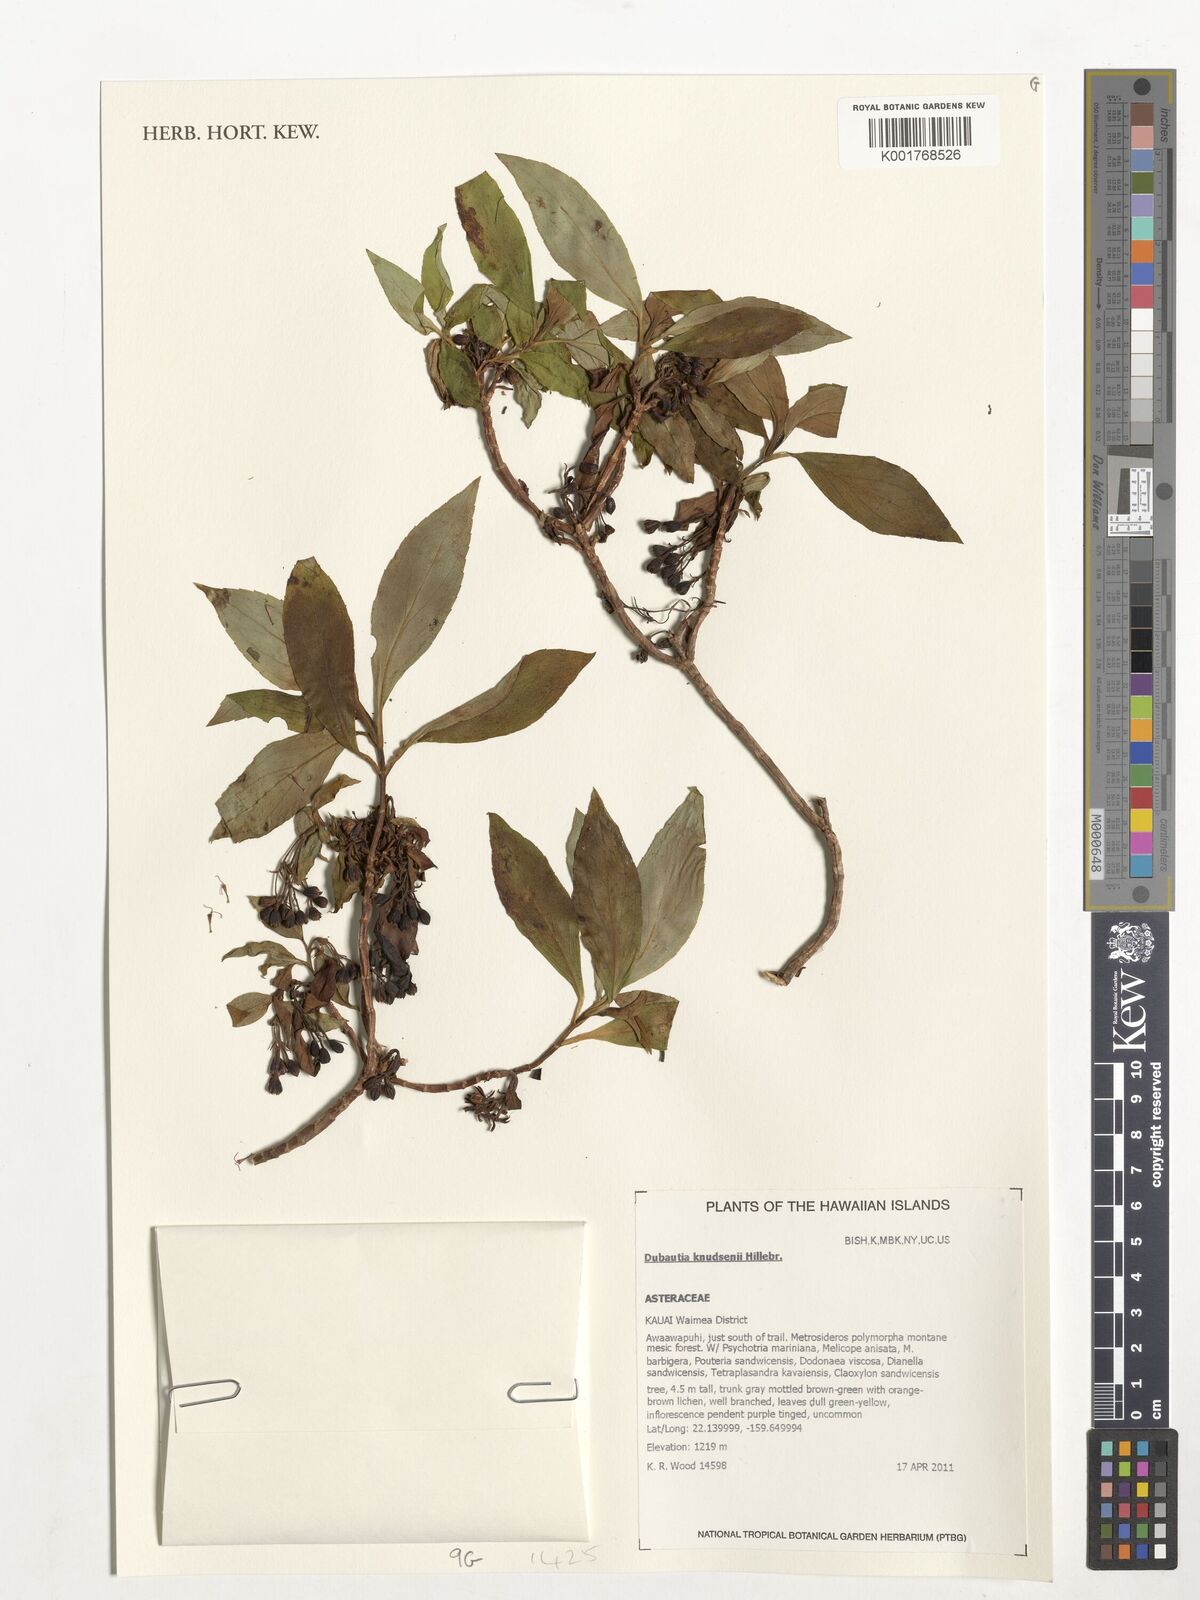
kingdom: Plantae
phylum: Tracheophyta
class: Magnoliopsida
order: Asterales
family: Asteraceae
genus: Dubautia
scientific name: Dubautia knudsenii
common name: Knudsen's dubautia
